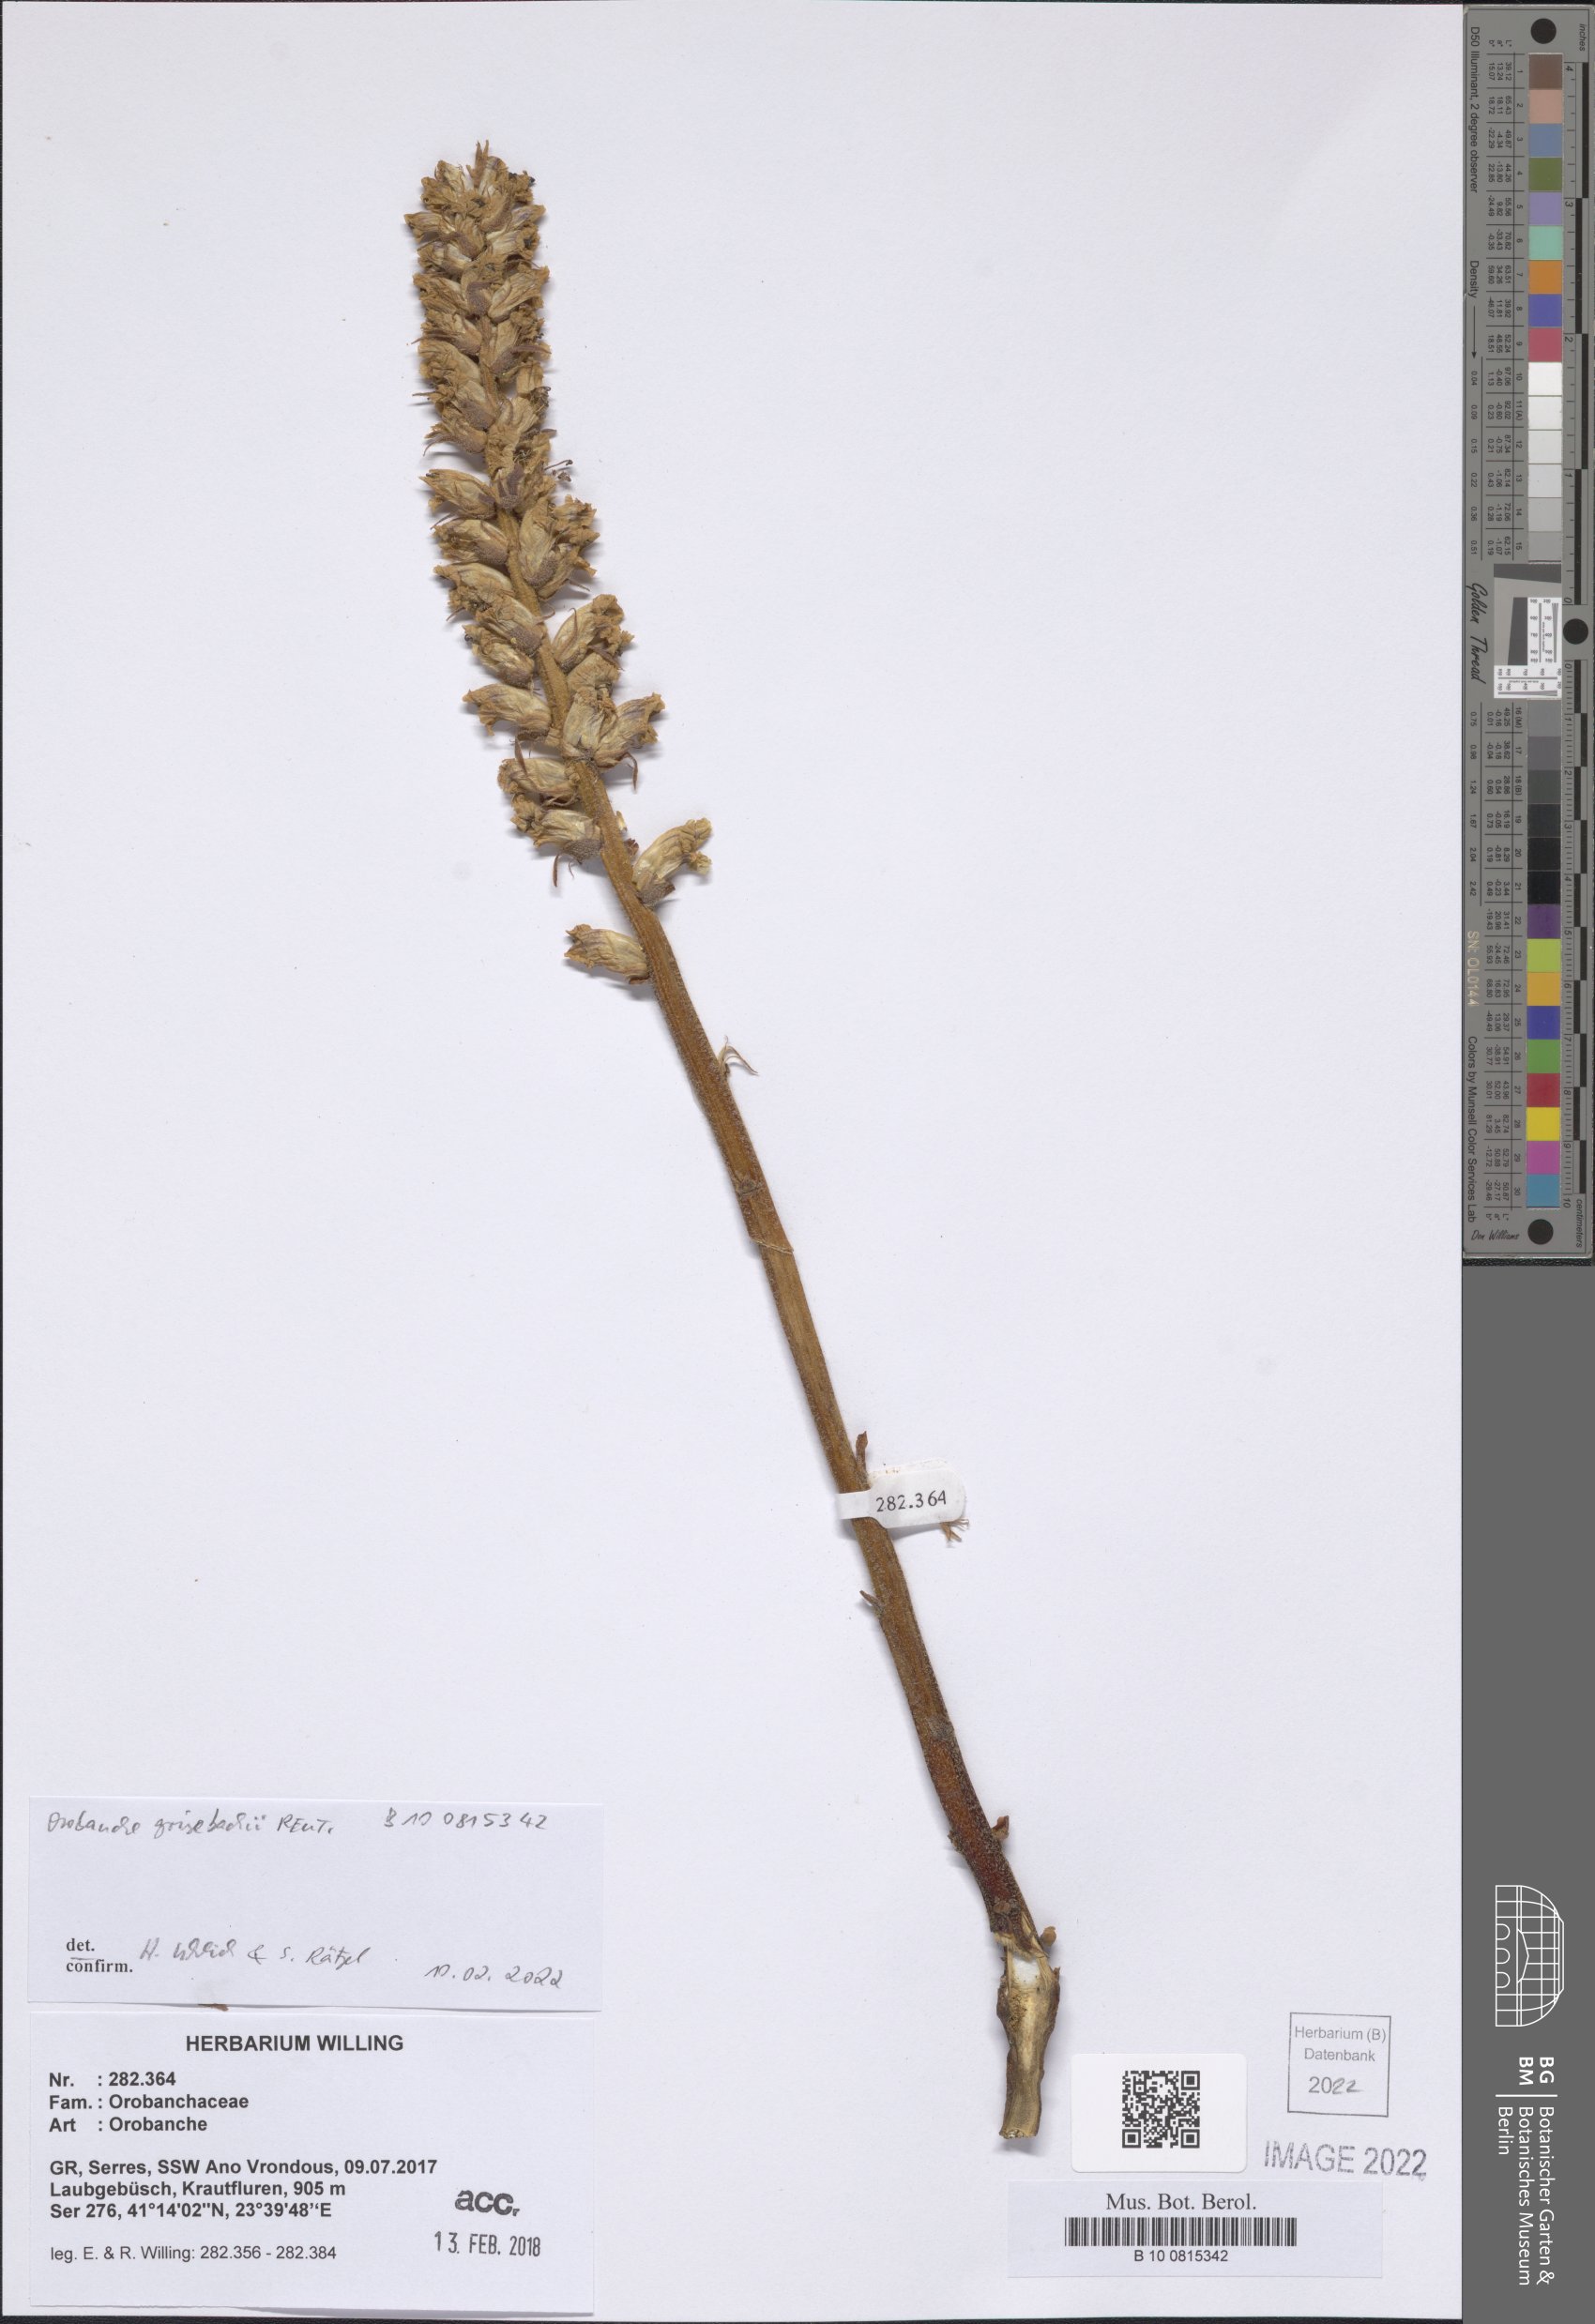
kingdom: Plantae
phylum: Tracheophyta
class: Magnoliopsida
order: Lamiales
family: Orobanchaceae
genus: Orobanche
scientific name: Orobanche grisebachii
